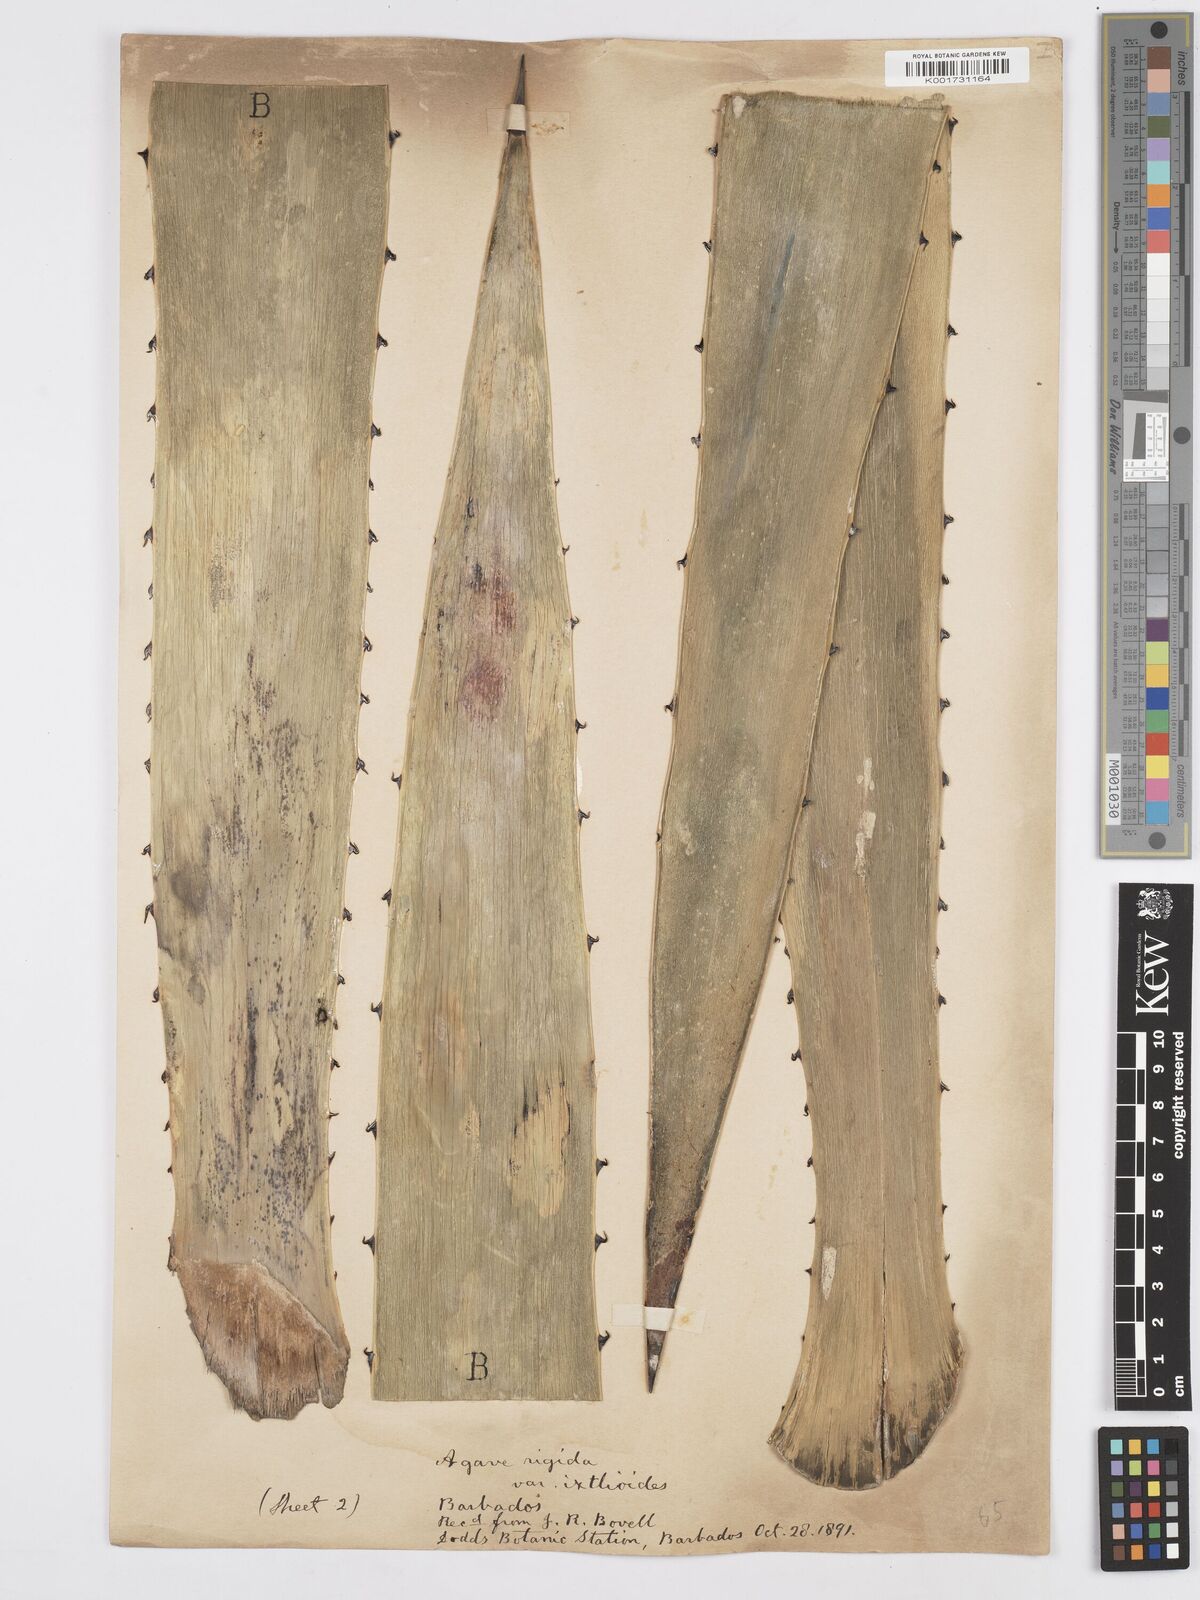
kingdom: Plantae
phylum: Tracheophyta
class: Liliopsida
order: Asparagales
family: Asparagaceae
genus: Agave
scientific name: Agave
